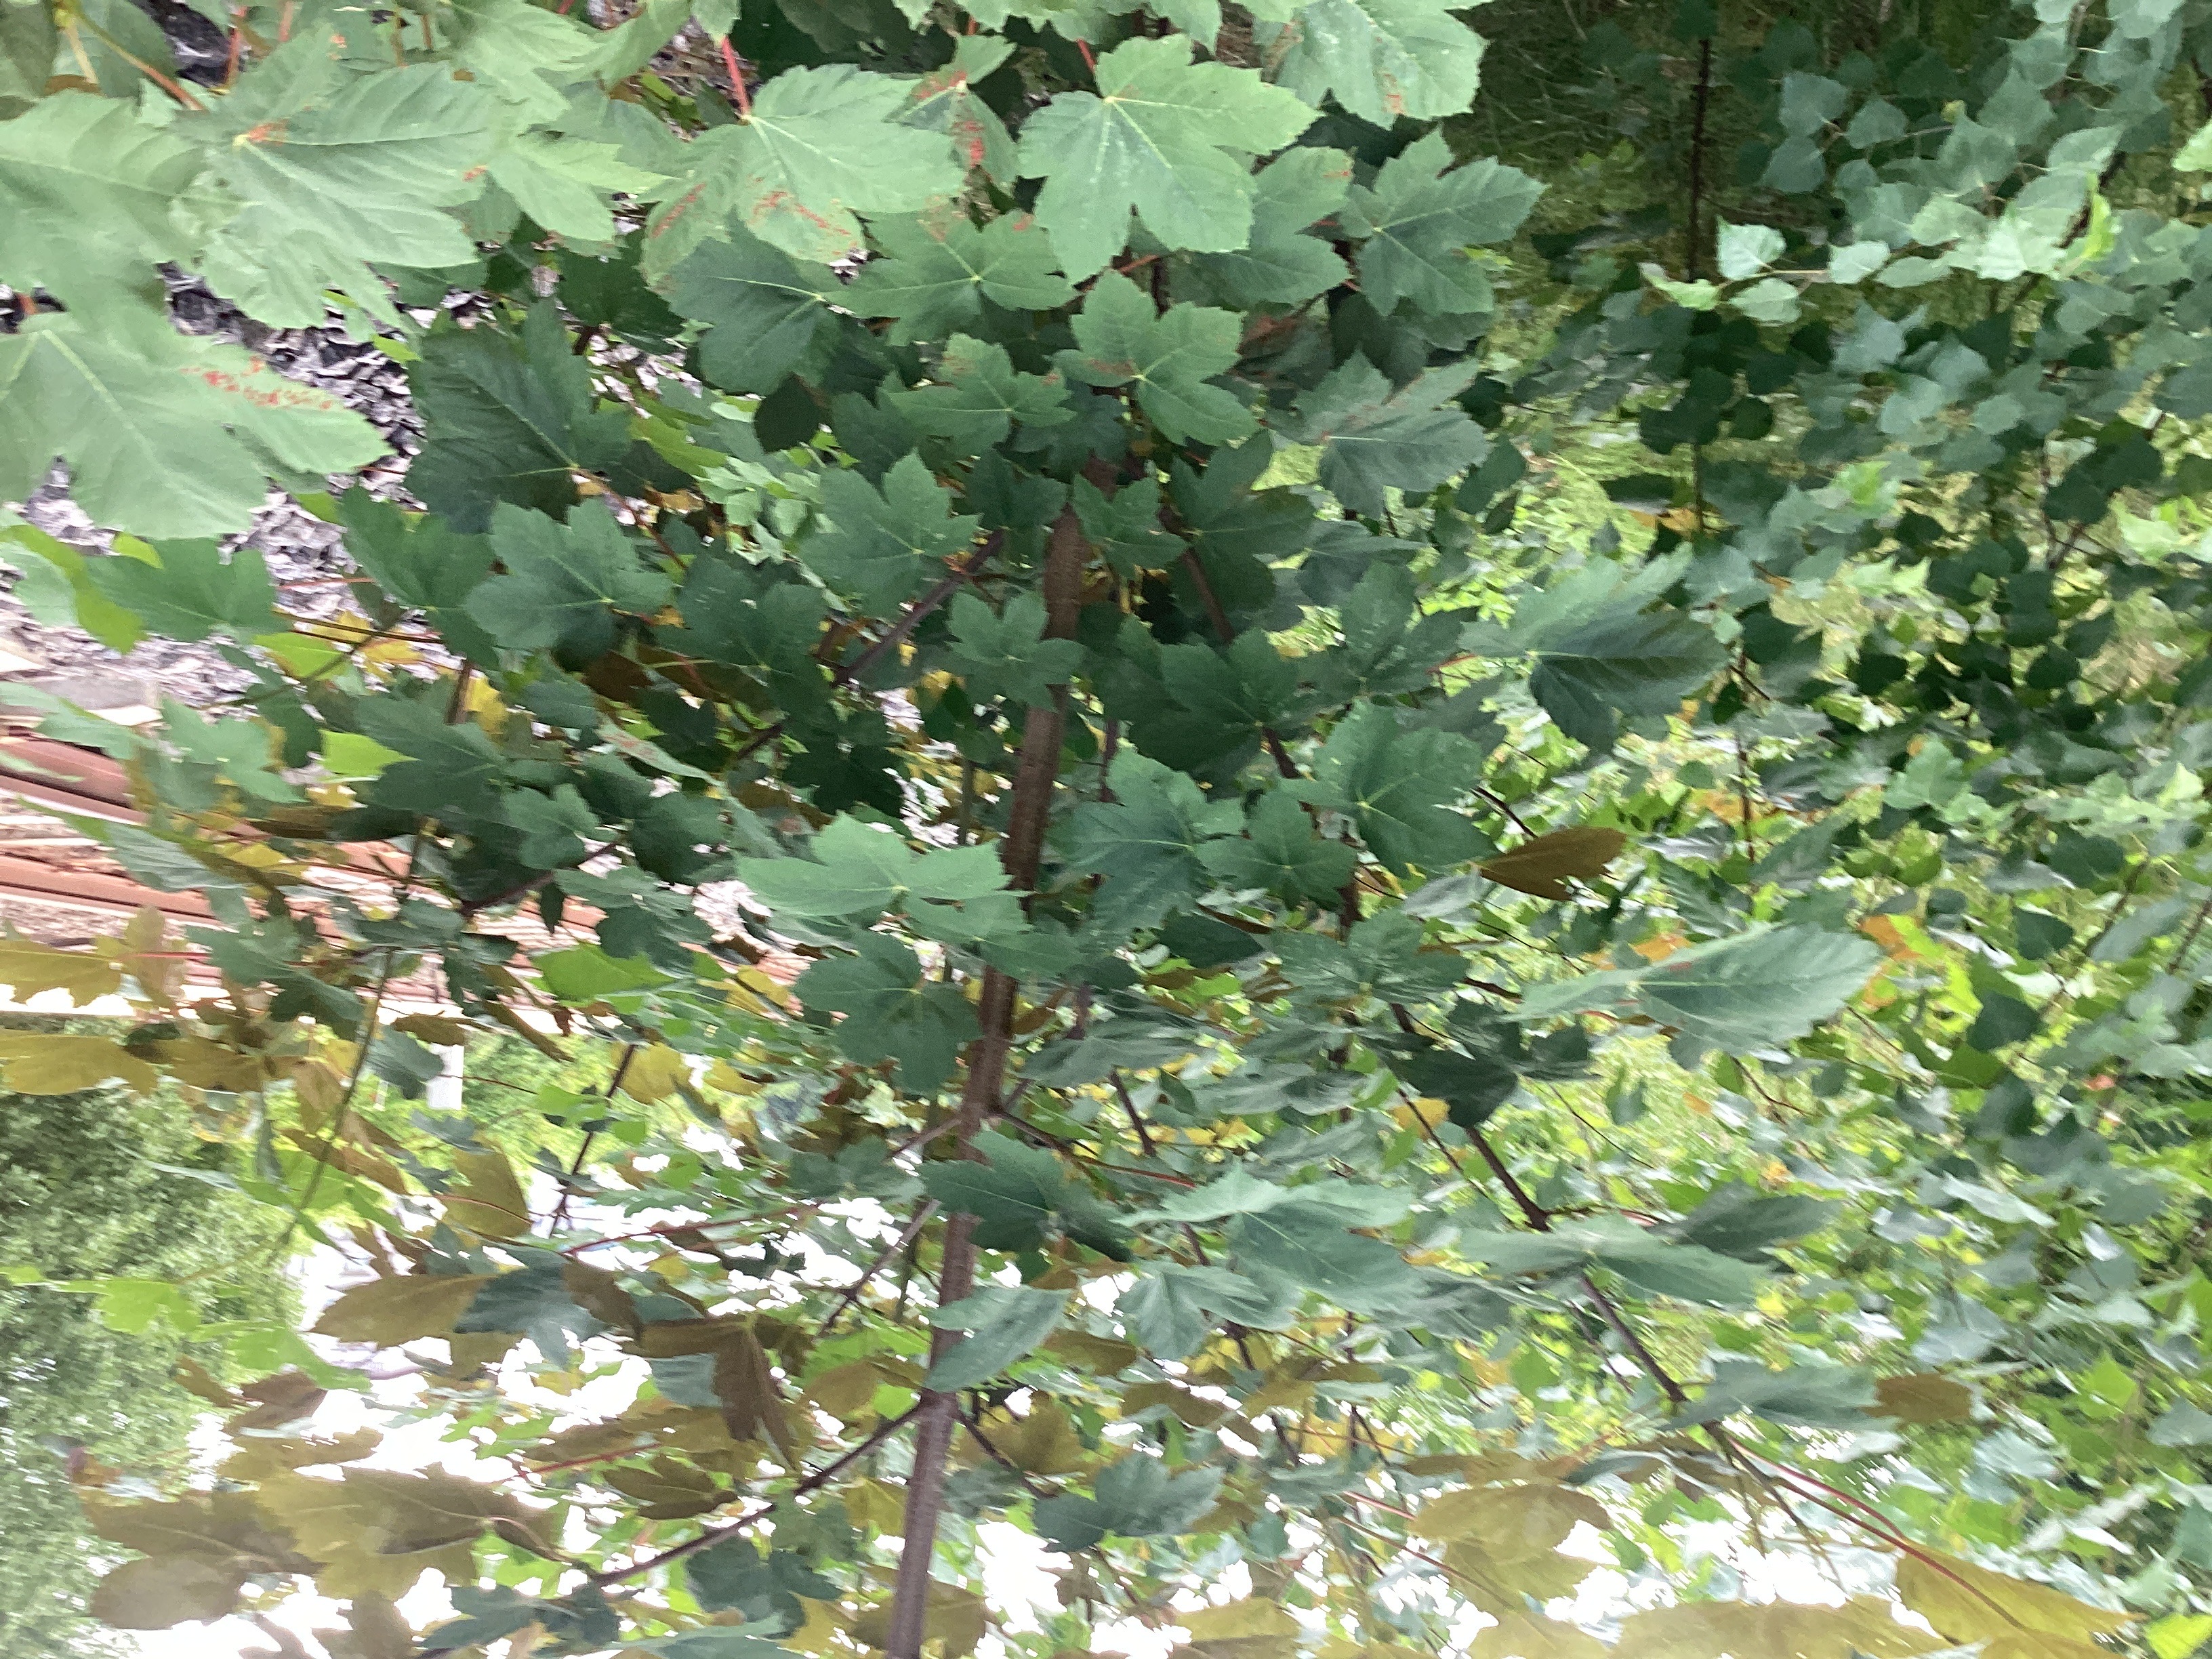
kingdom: Plantae
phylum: Tracheophyta
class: Magnoliopsida
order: Sapindales
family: Sapindaceae
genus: Acer
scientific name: Acer pseudoplatanus
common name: platanlønn
